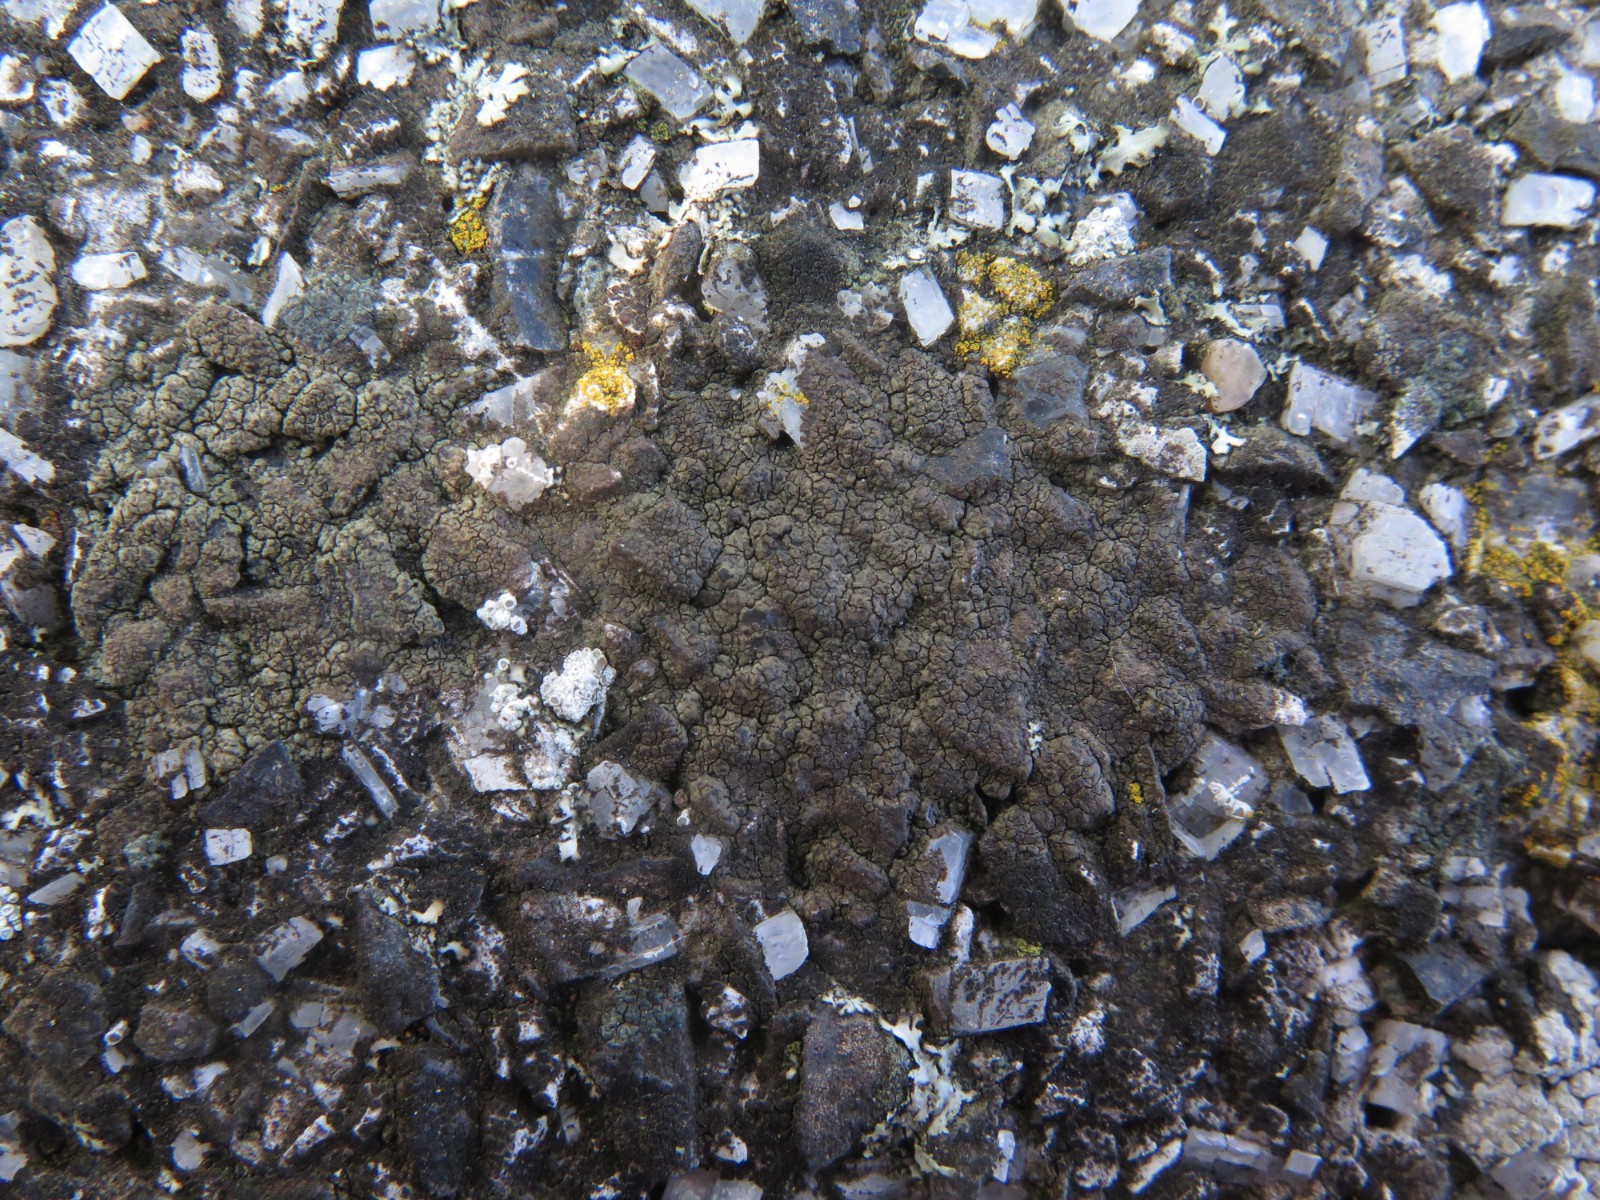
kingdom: Fungi
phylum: Ascomycota
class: Eurotiomycetes
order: Verrucariales
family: Verrucariaceae
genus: Verrucaria
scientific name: Verrucaria nigrescens
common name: sortbrun vortelav
